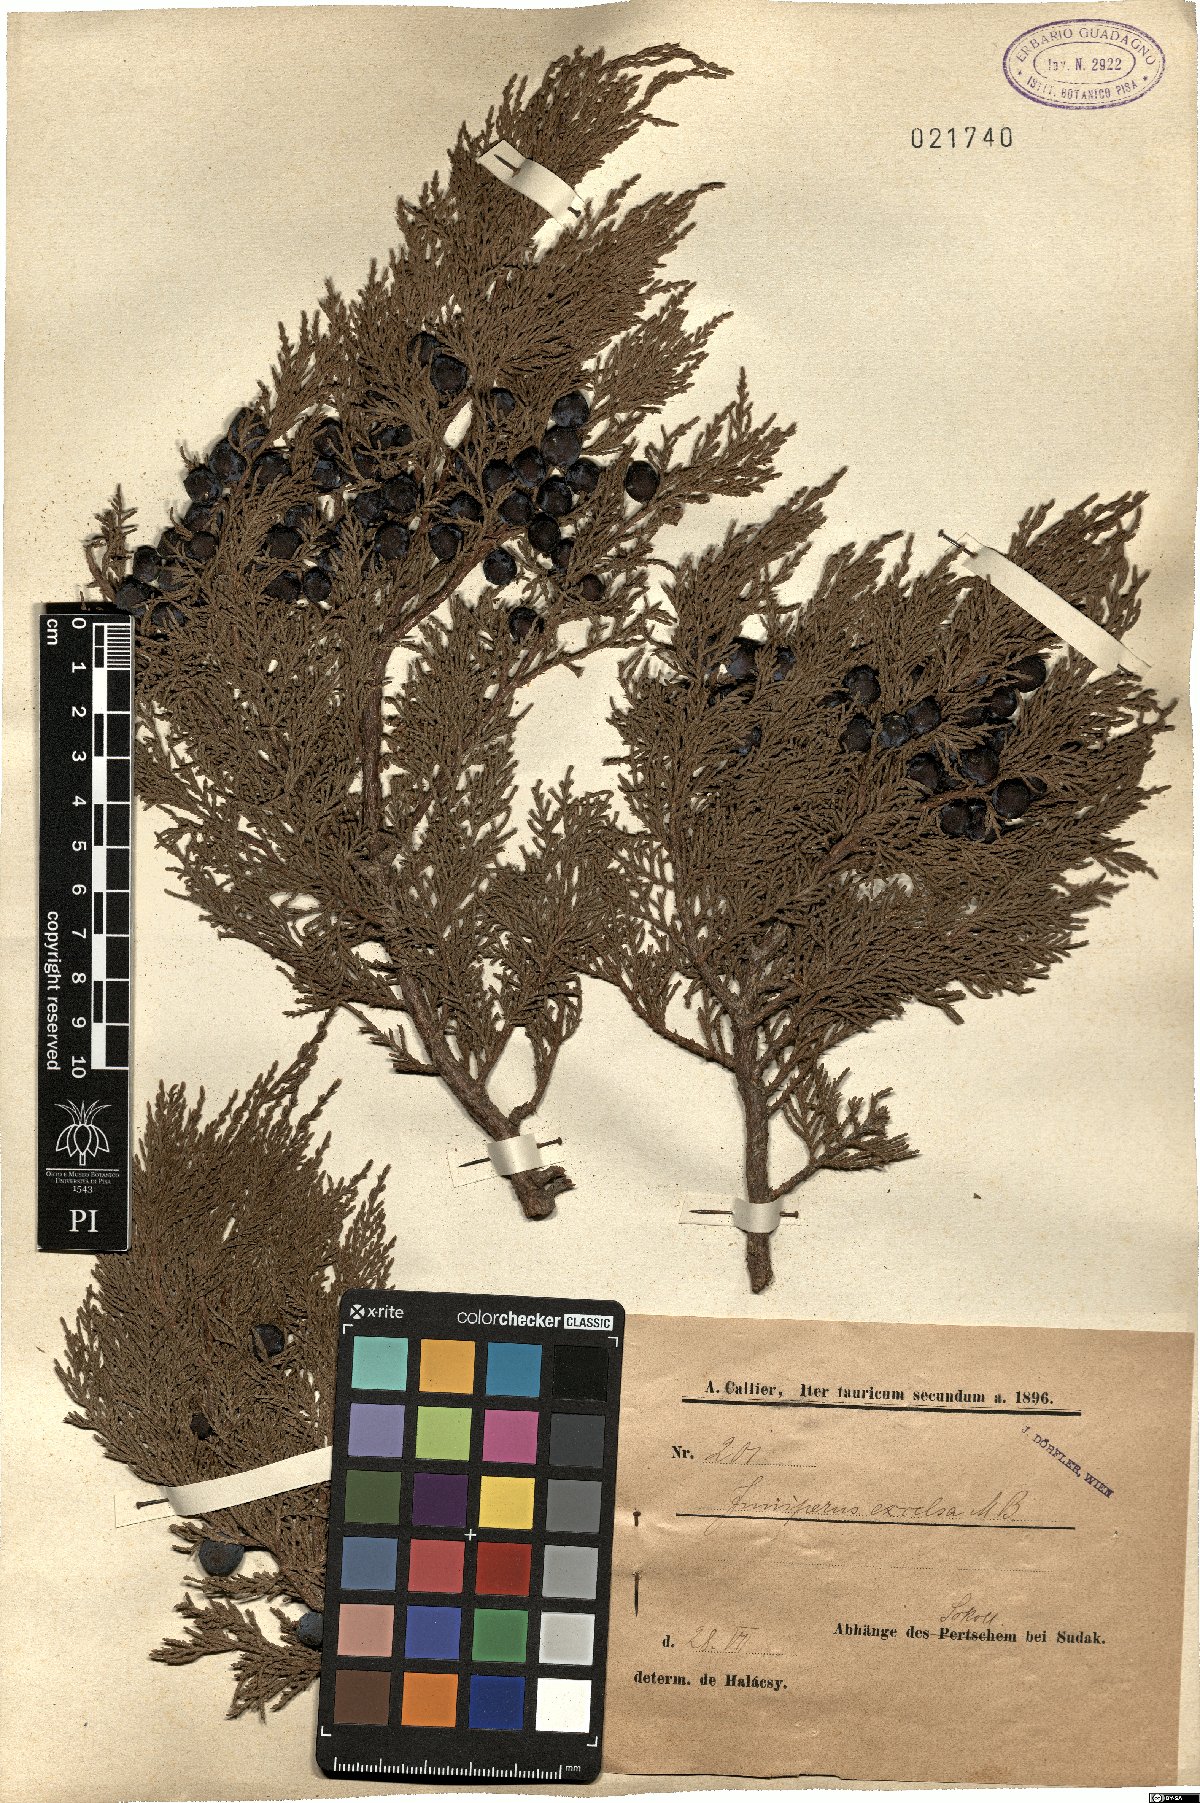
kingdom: Plantae
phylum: Tracheophyta
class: Pinopsida
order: Pinales
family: Cupressaceae
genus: Juniperus
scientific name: Juniperus excelsa
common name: Crimean juniper
